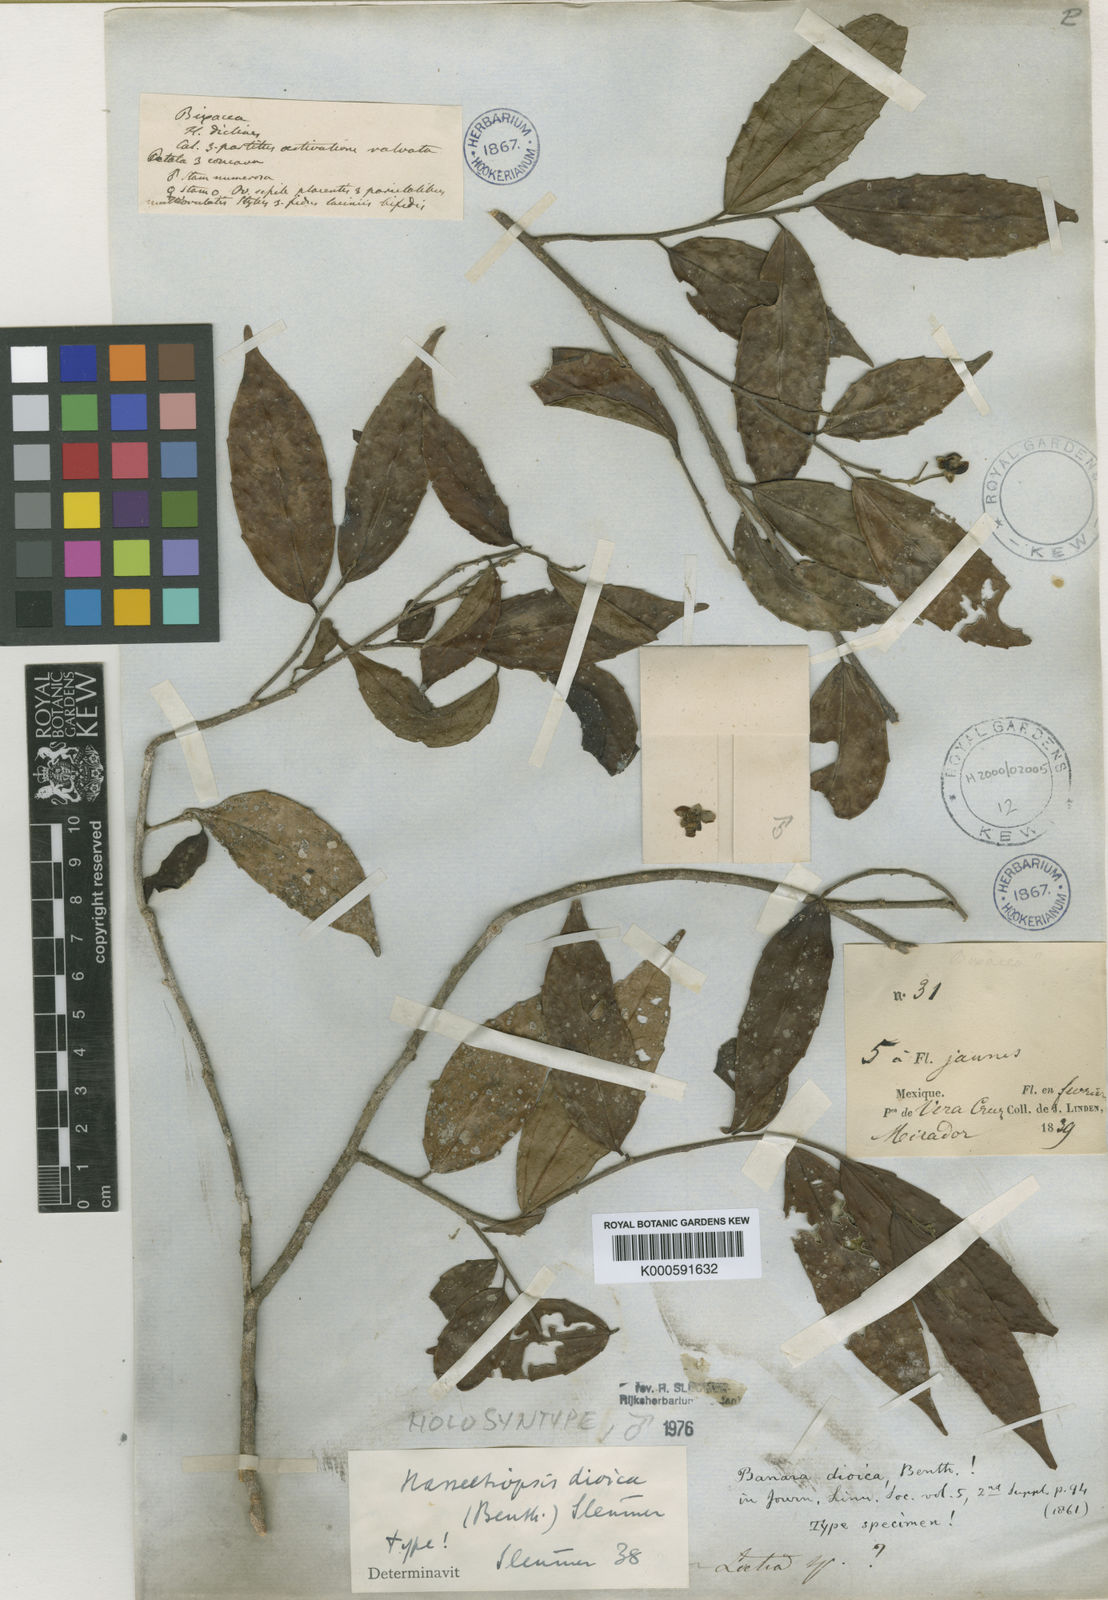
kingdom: Plantae
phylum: Tracheophyta
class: Magnoliopsida
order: Malpighiales
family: Salicaceae
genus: Hasseltiopsis
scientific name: Hasseltiopsis dioica
